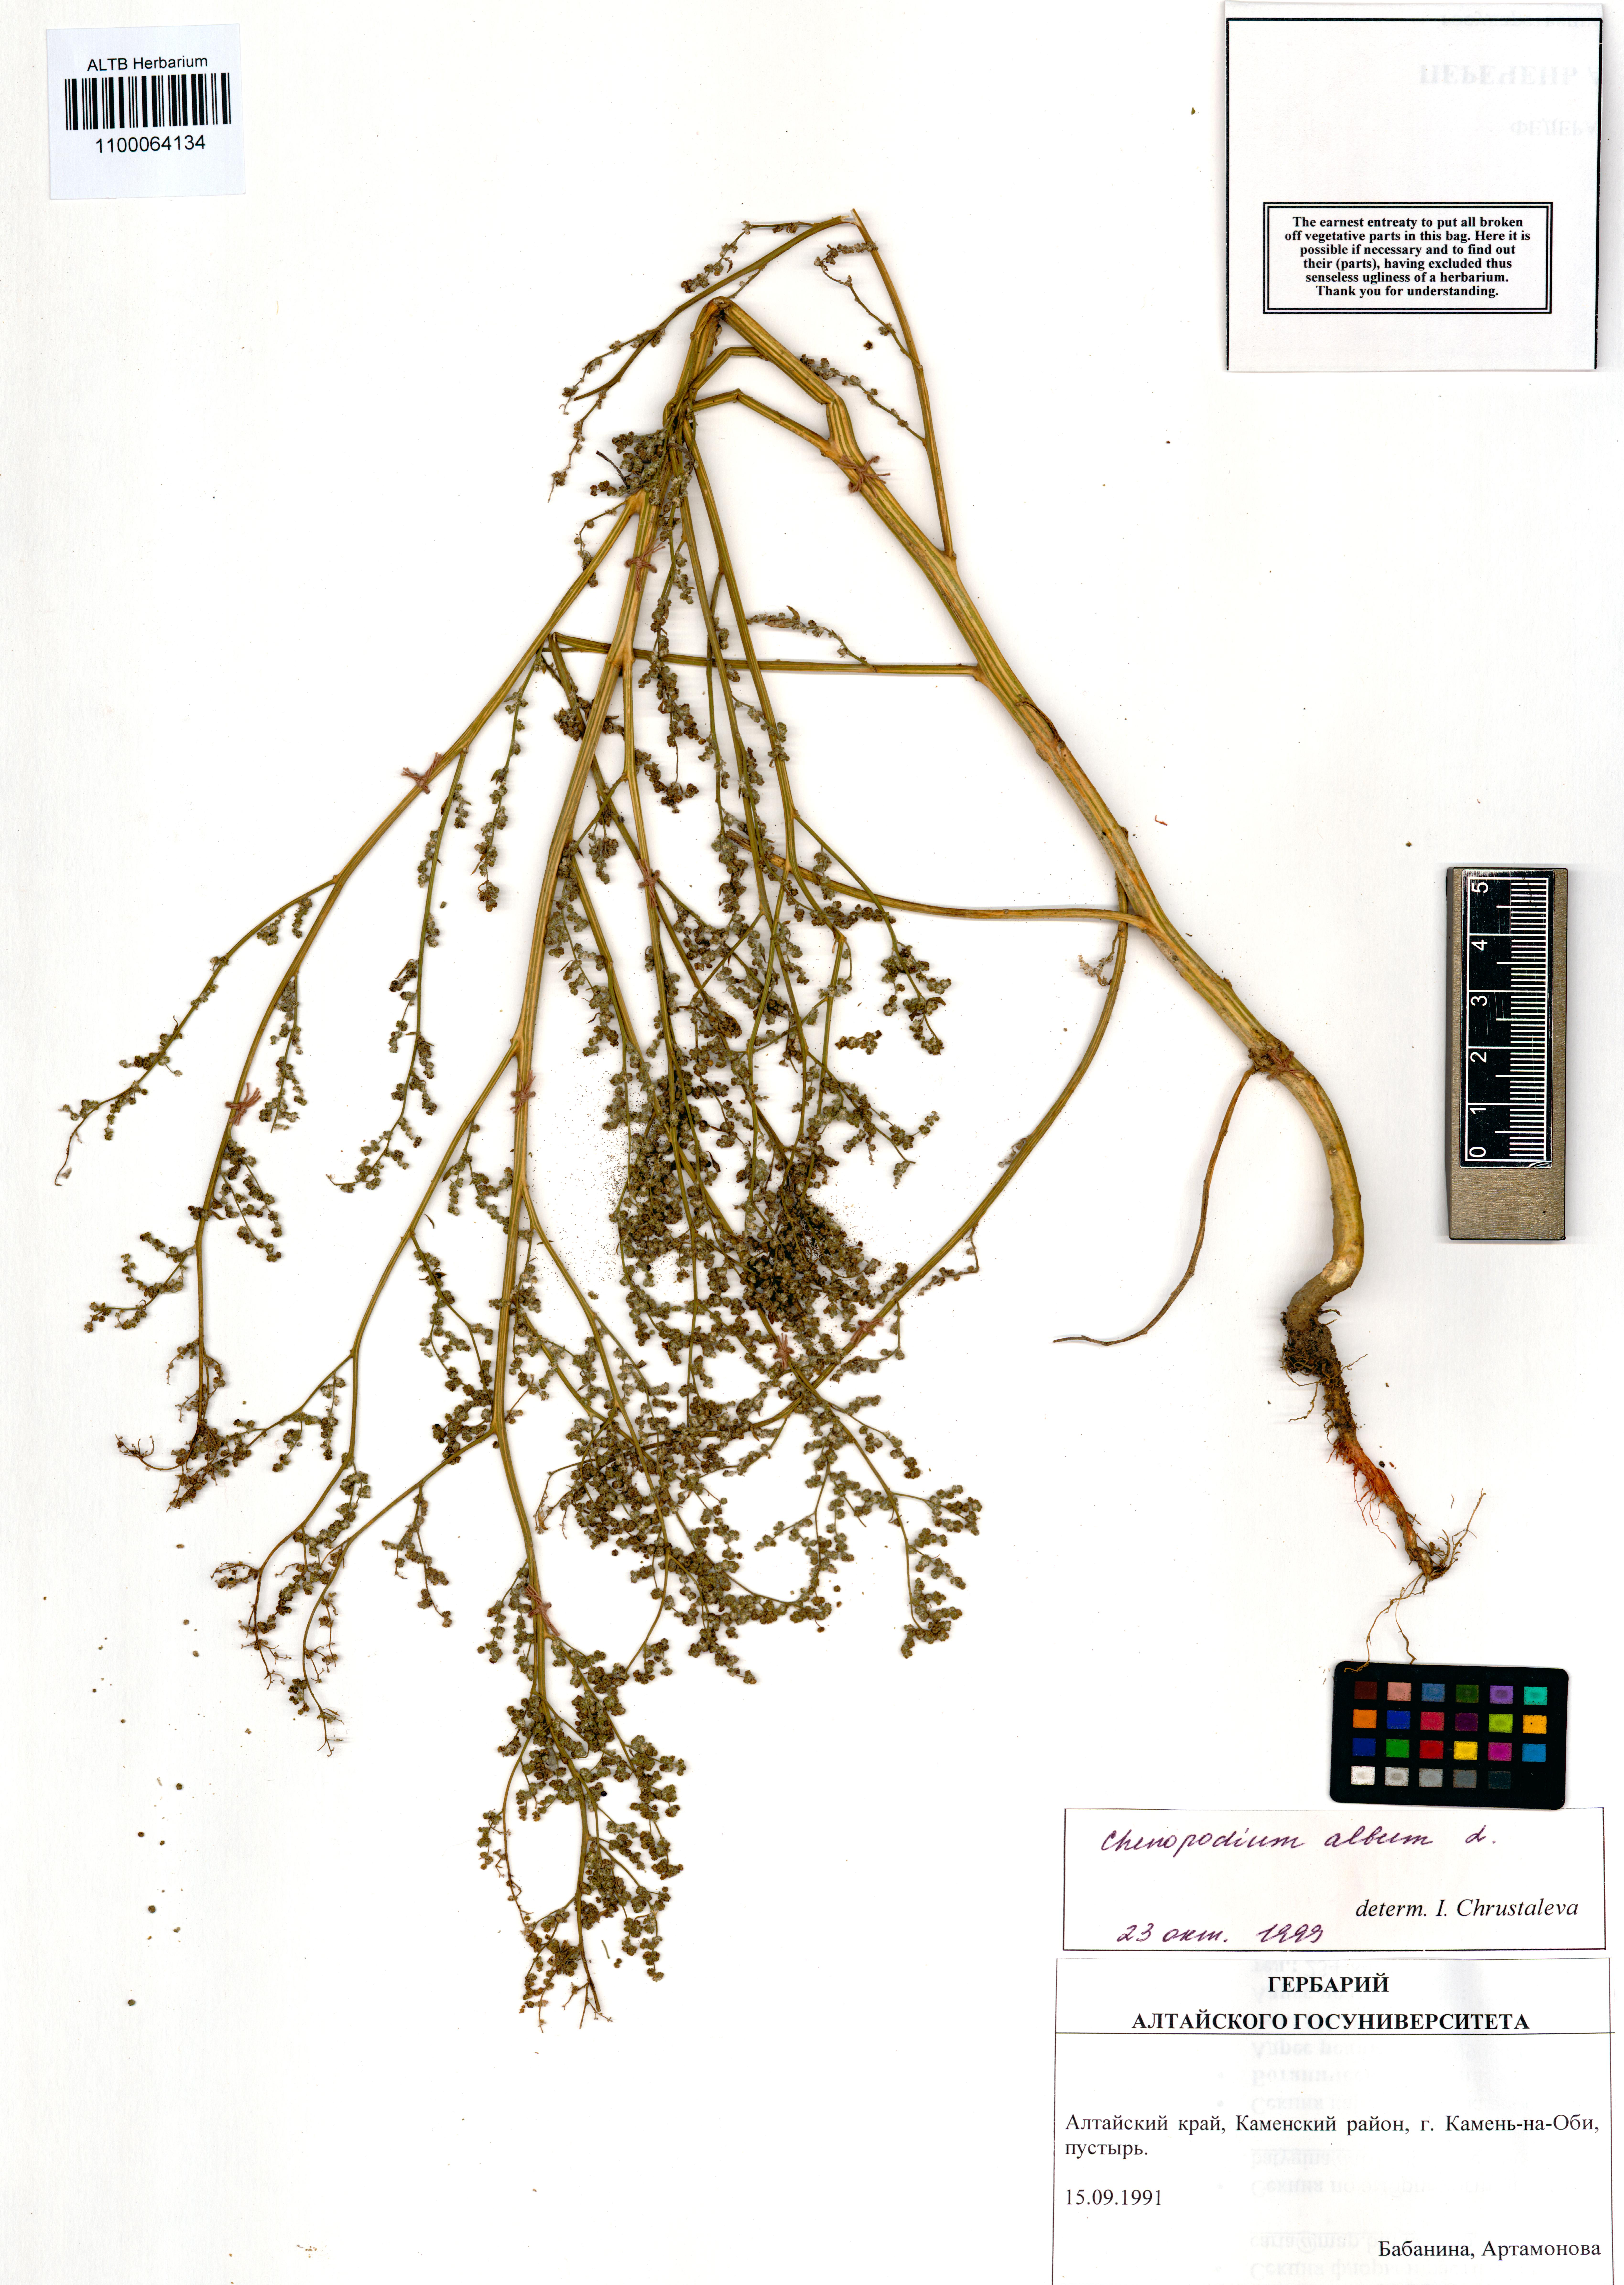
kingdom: Plantae
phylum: Tracheophyta
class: Magnoliopsida
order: Caryophyllales
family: Amaranthaceae
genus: Chenopodium
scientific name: Chenopodium album
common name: Fat-hen
